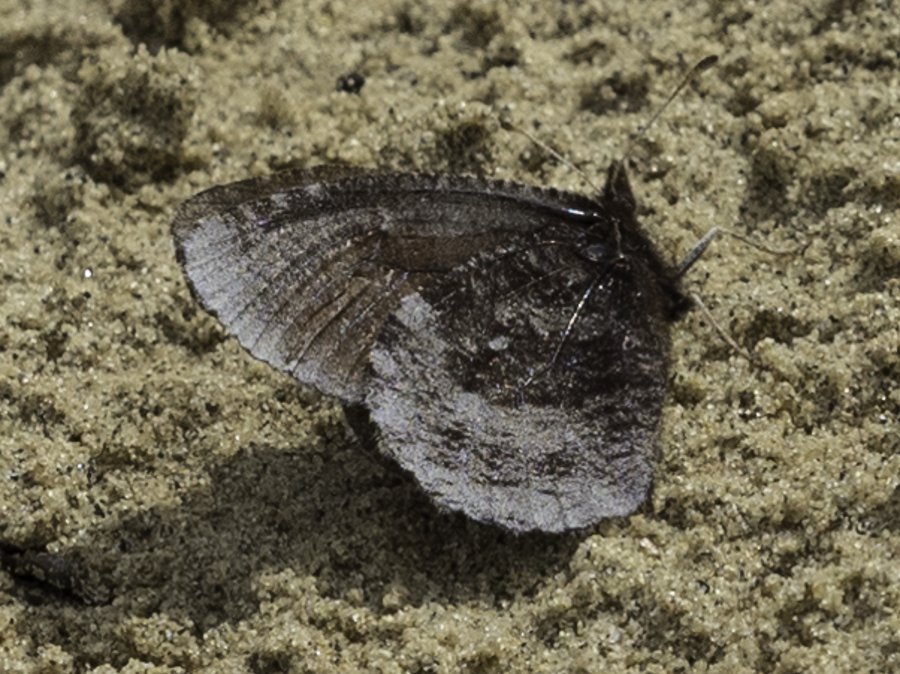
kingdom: Animalia
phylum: Arthropoda
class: Insecta
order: Lepidoptera
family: Nymphalidae
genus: Erebia
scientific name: Erebia discoidalis
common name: Red-disked Alpine
